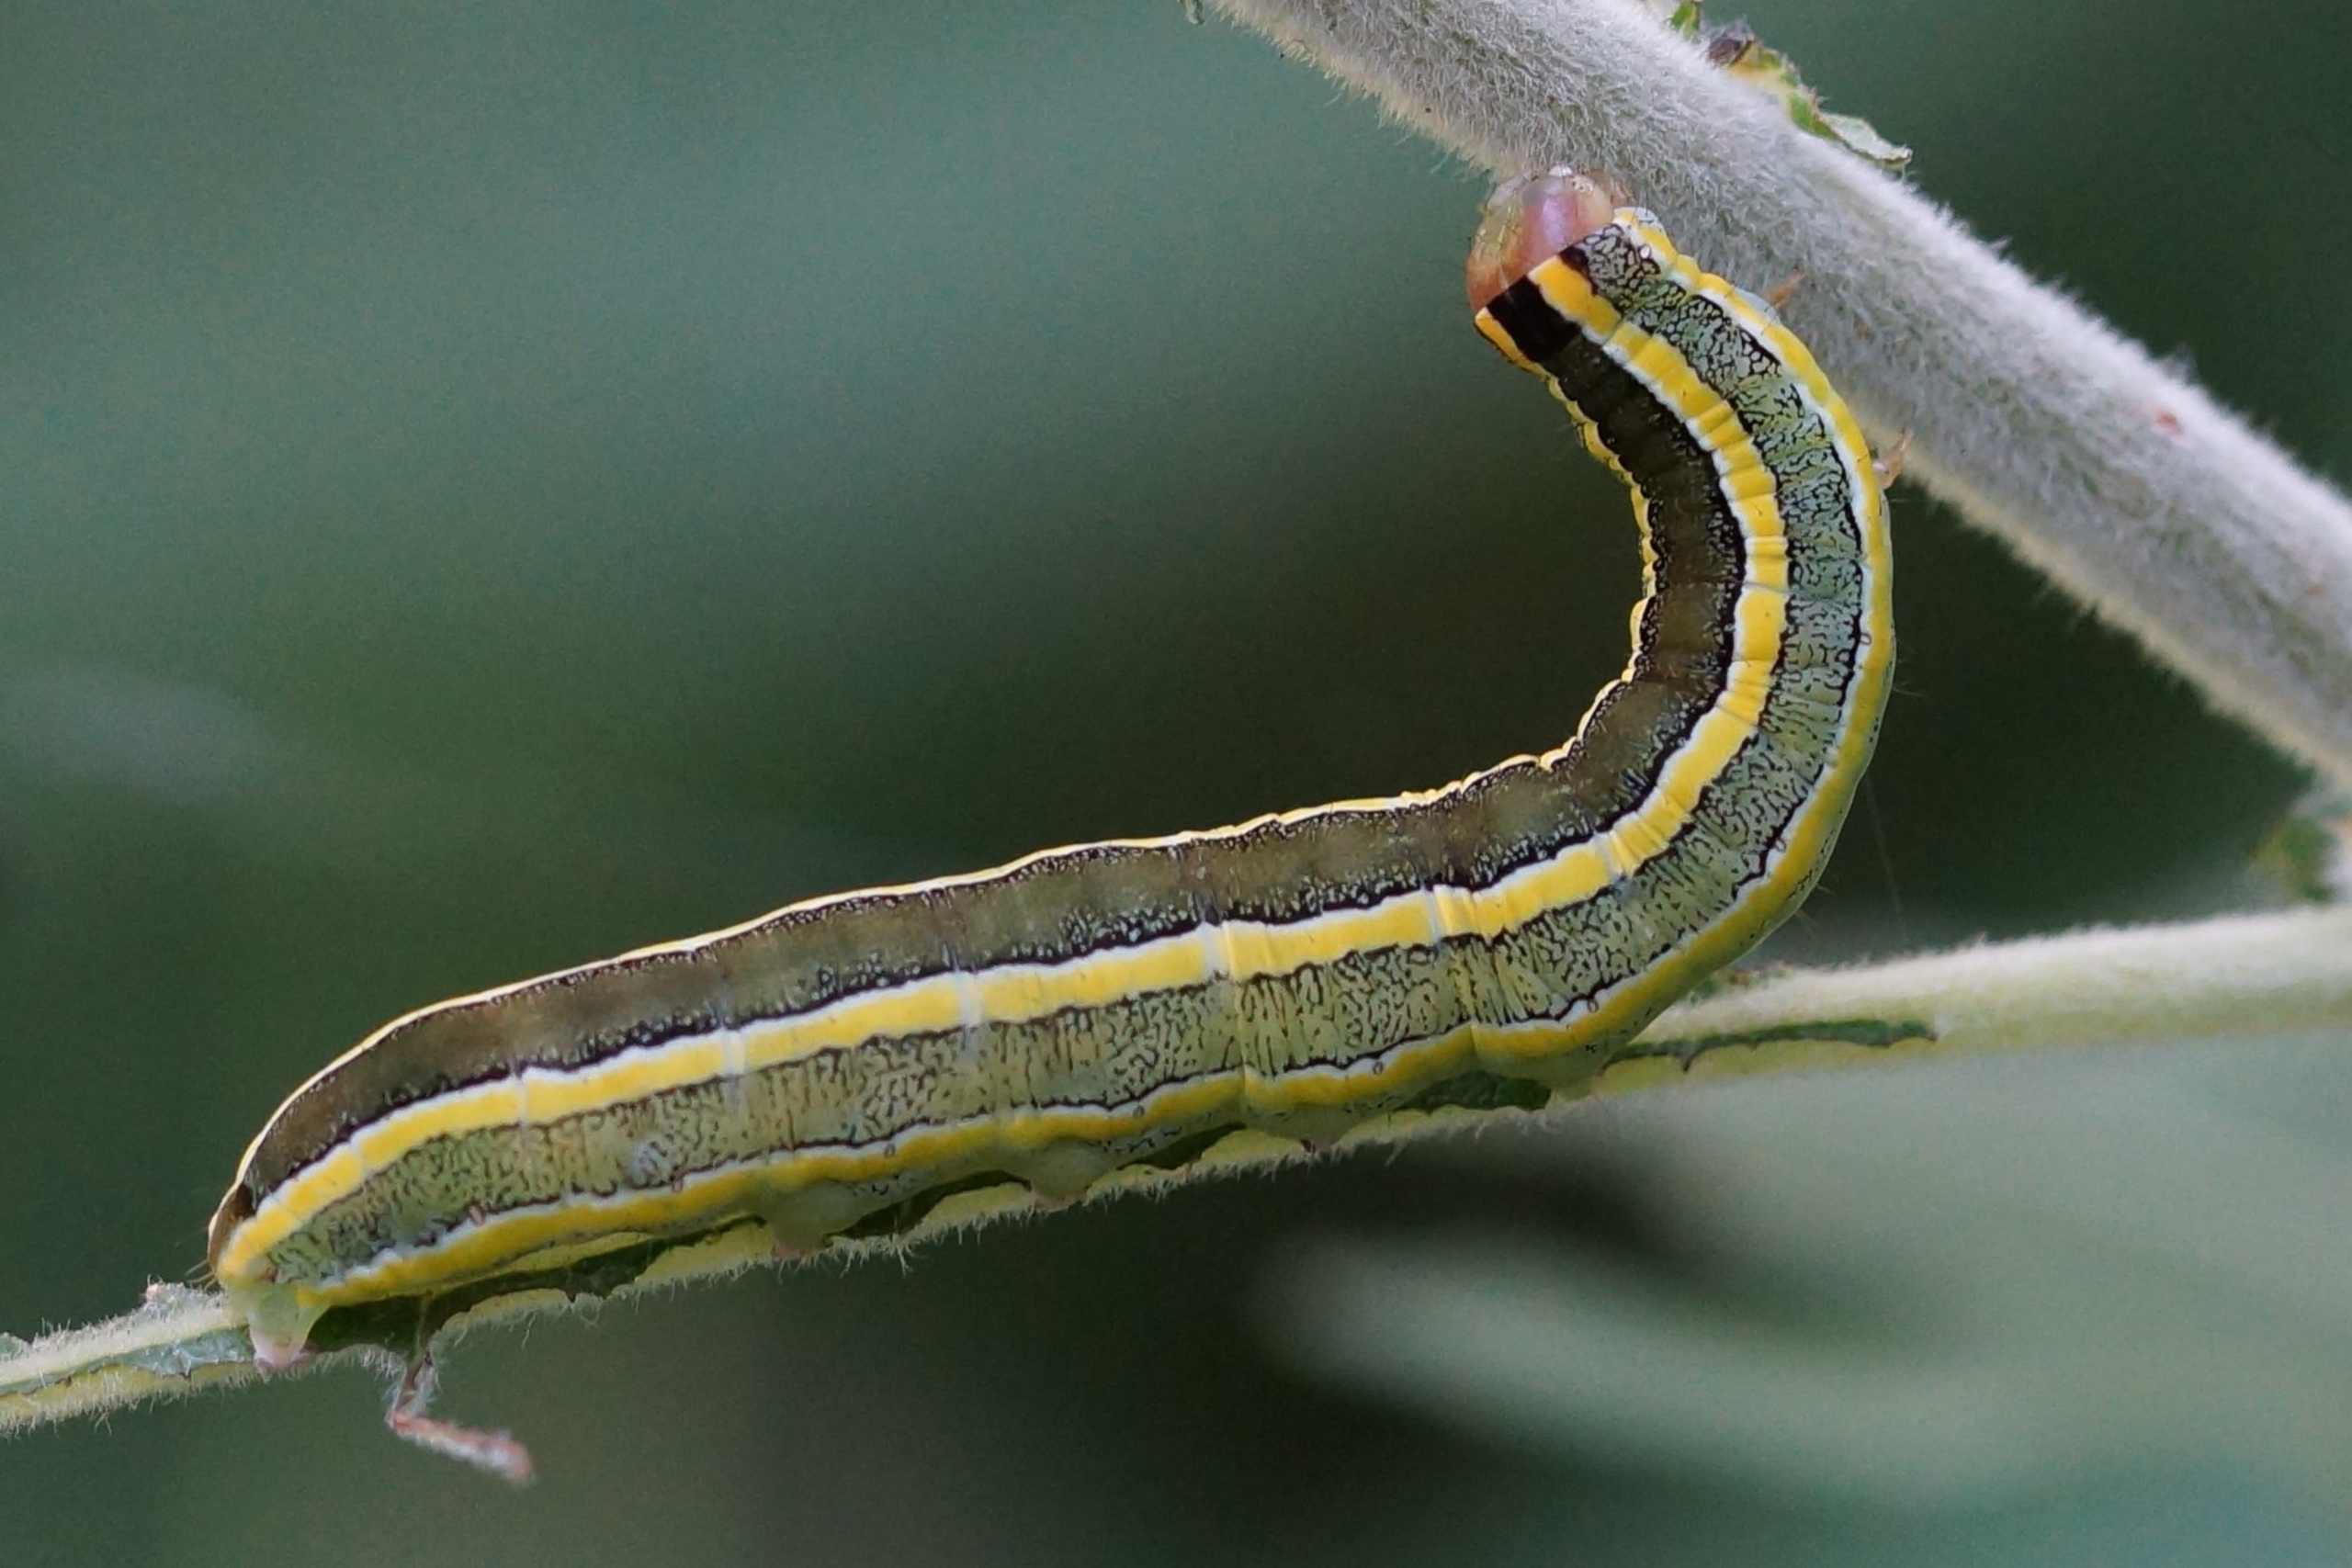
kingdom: Animalia
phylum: Arthropoda
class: Insecta
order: Lepidoptera
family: Noctuidae
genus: Ceramica
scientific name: Ceramica pisi
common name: Ærteugle
